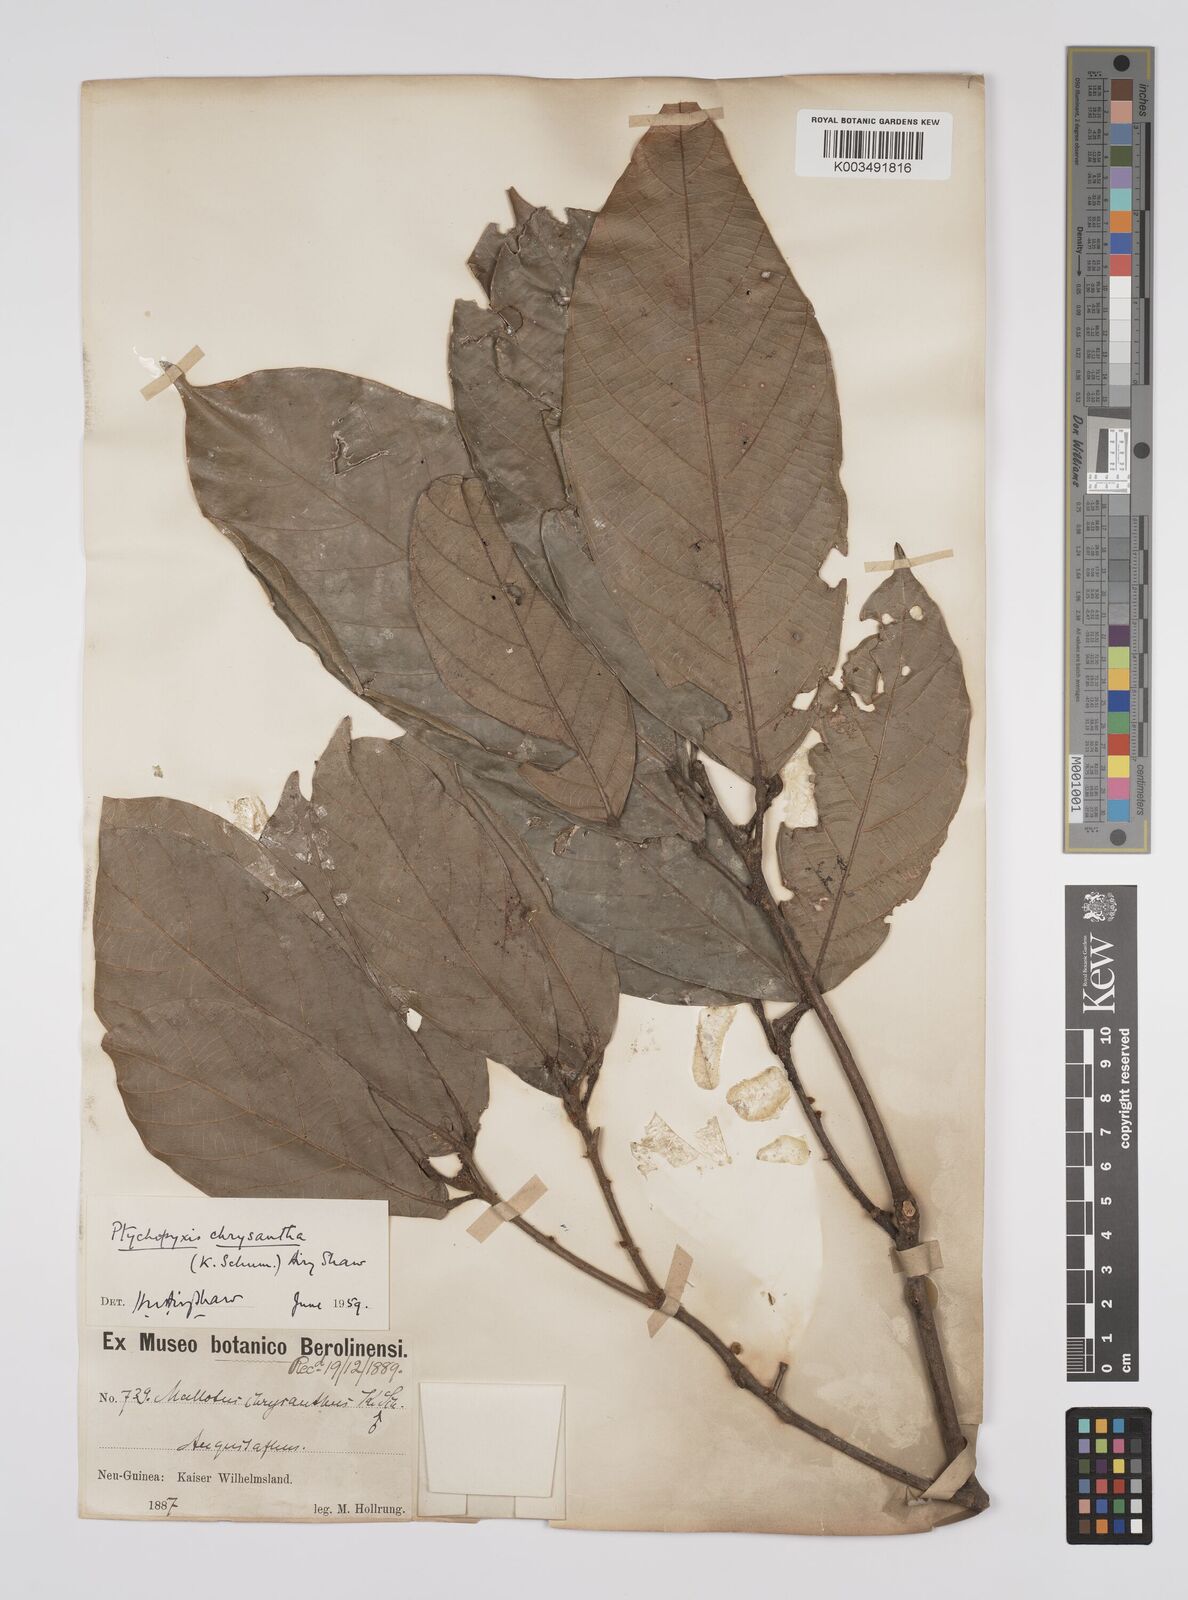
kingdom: Plantae
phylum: Tracheophyta
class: Magnoliopsida
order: Malpighiales
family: Euphorbiaceae
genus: Ptychopyxis
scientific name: Ptychopyxis chrysantha
